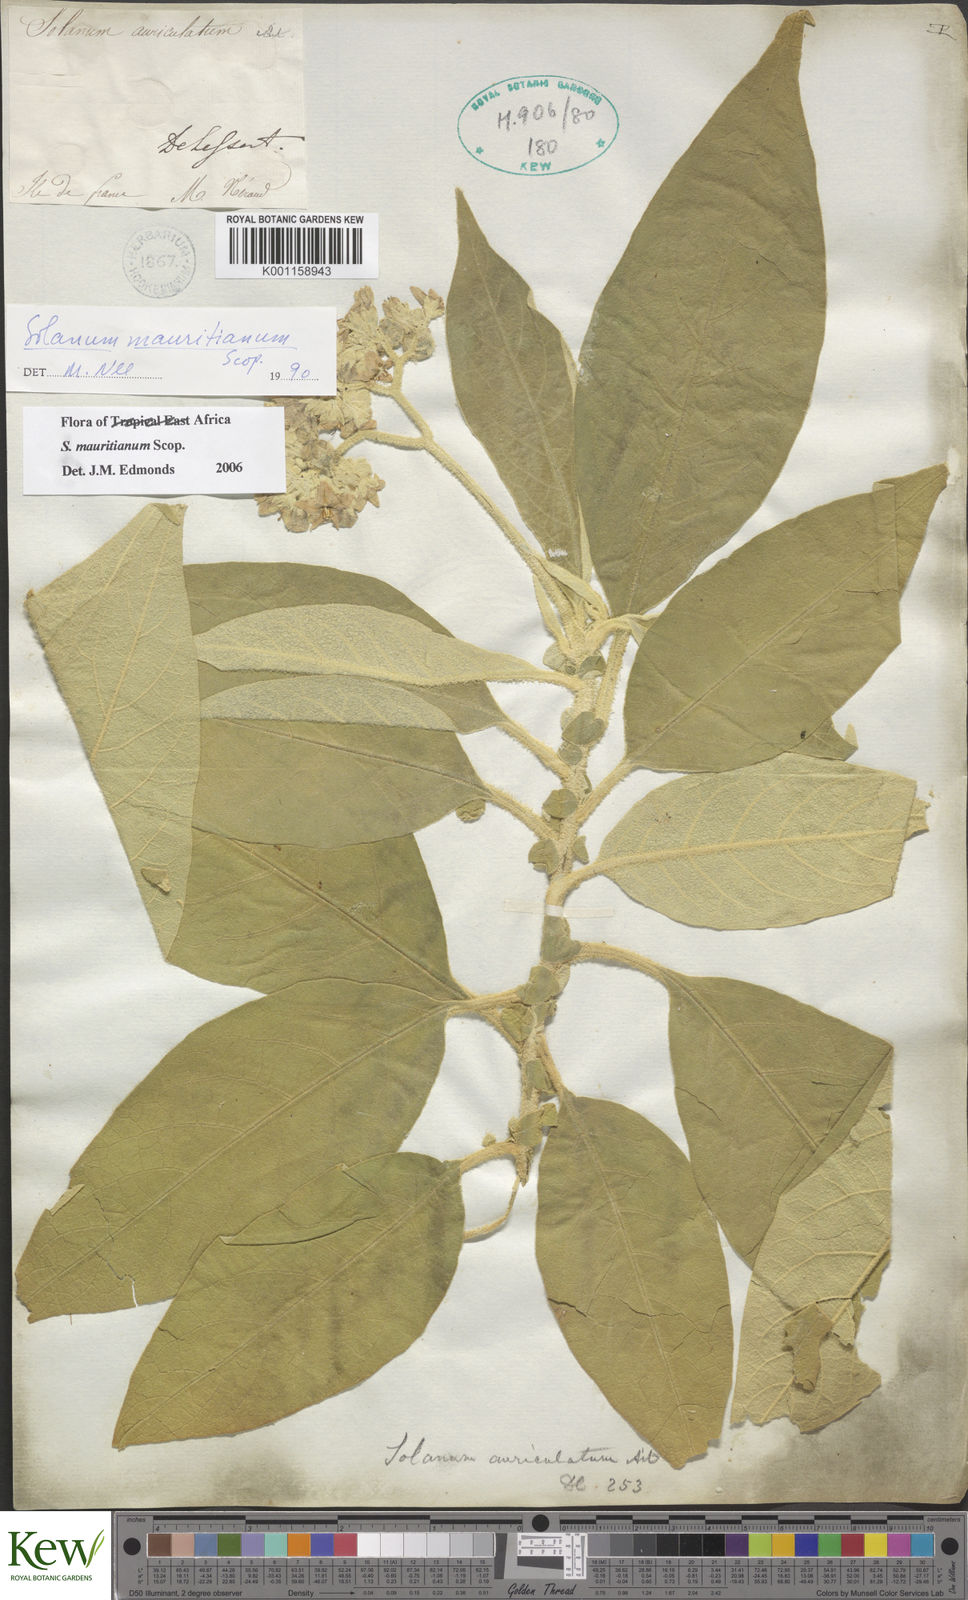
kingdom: Plantae
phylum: Tracheophyta
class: Magnoliopsida
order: Solanales
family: Solanaceae
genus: Solanum
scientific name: Solanum mauritianum
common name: Earleaf nightshade
